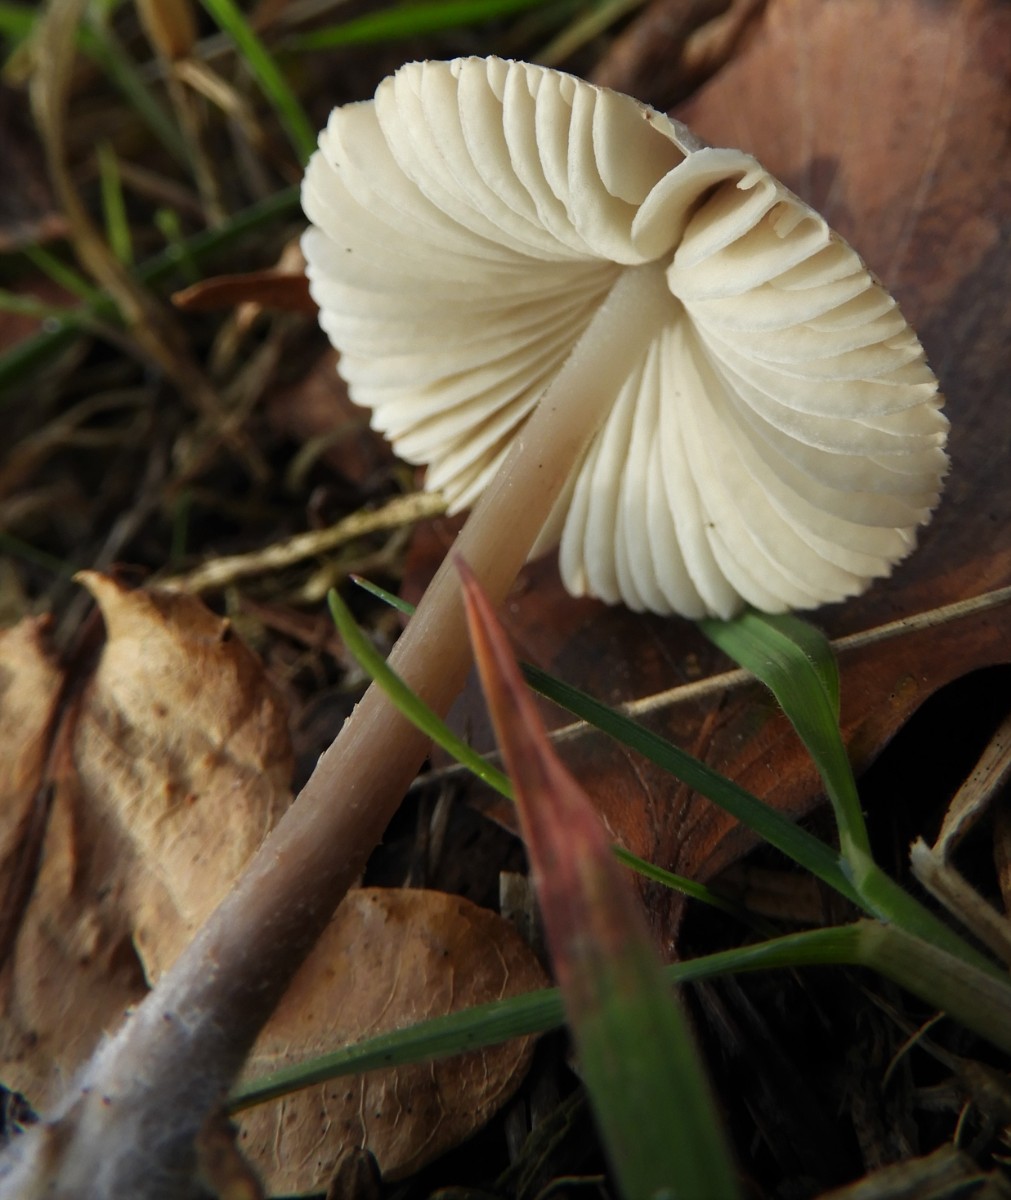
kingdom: Fungi
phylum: Basidiomycota
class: Agaricomycetes
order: Agaricales
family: Mycenaceae
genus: Mycena
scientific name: Mycena galericulata
